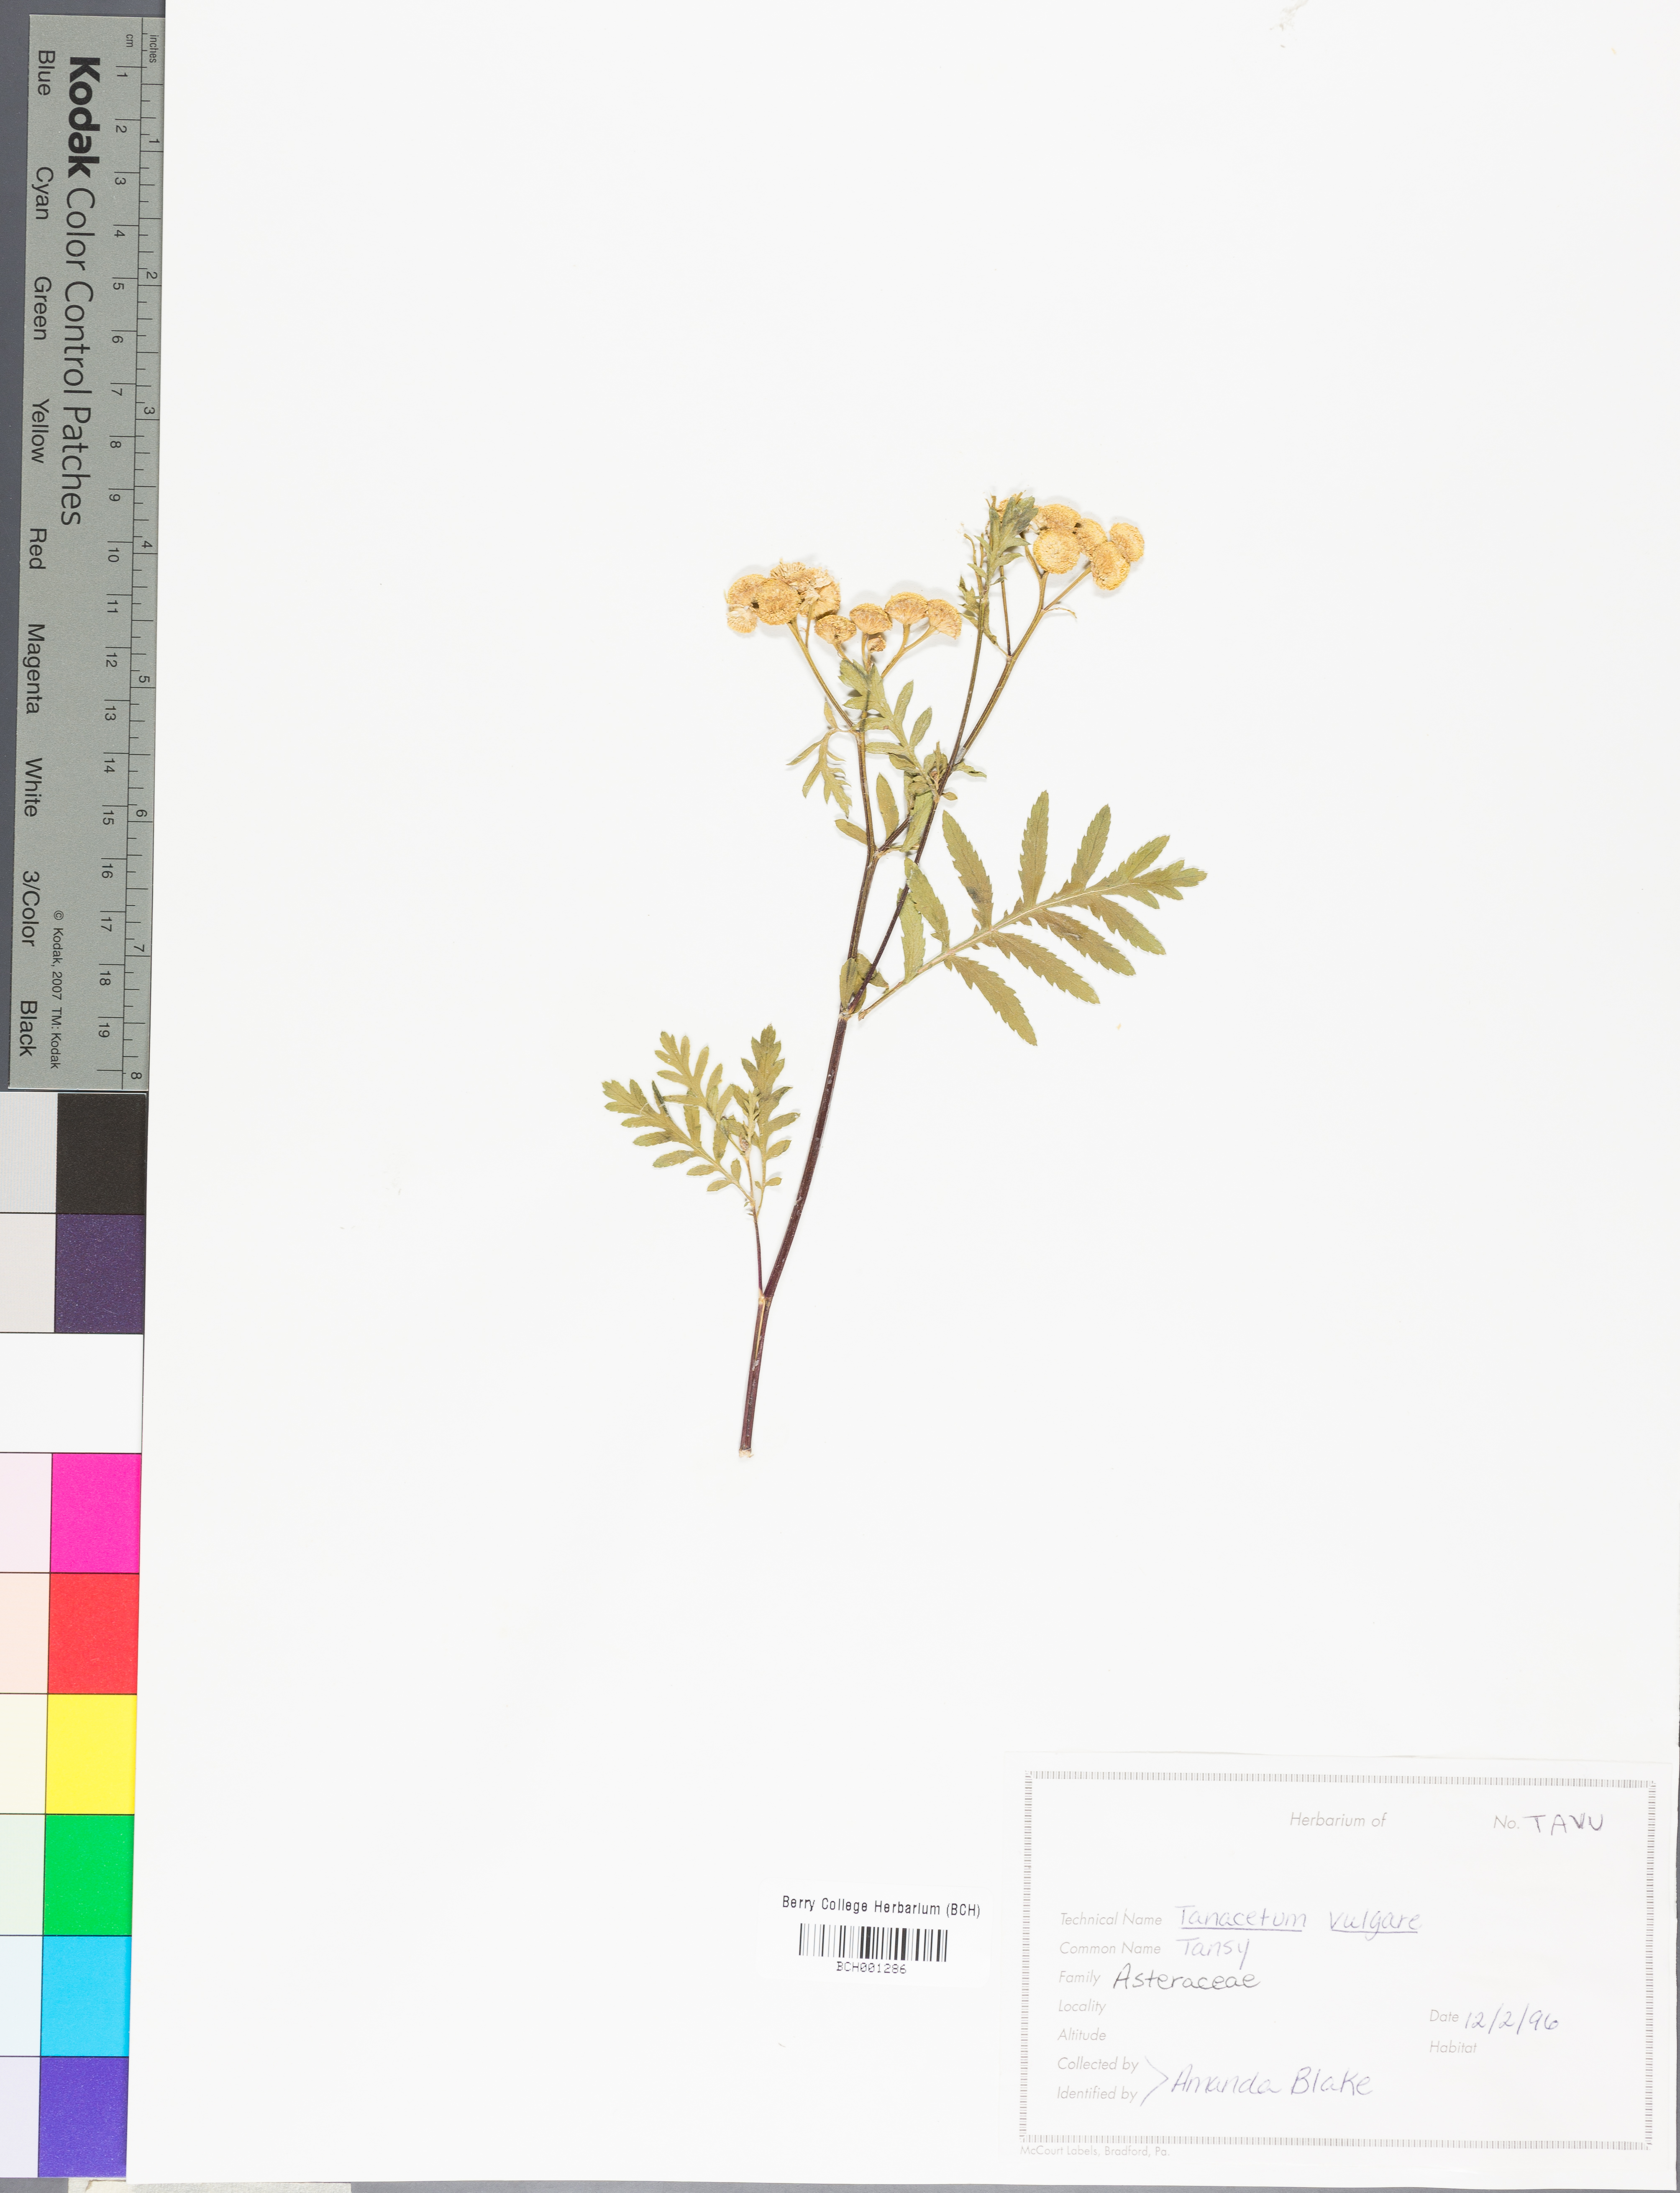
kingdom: Plantae
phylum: Tracheophyta
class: Magnoliopsida
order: Asterales
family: Asteraceae
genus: Eupatorium
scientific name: Eupatorium serotinum
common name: Late boneset
